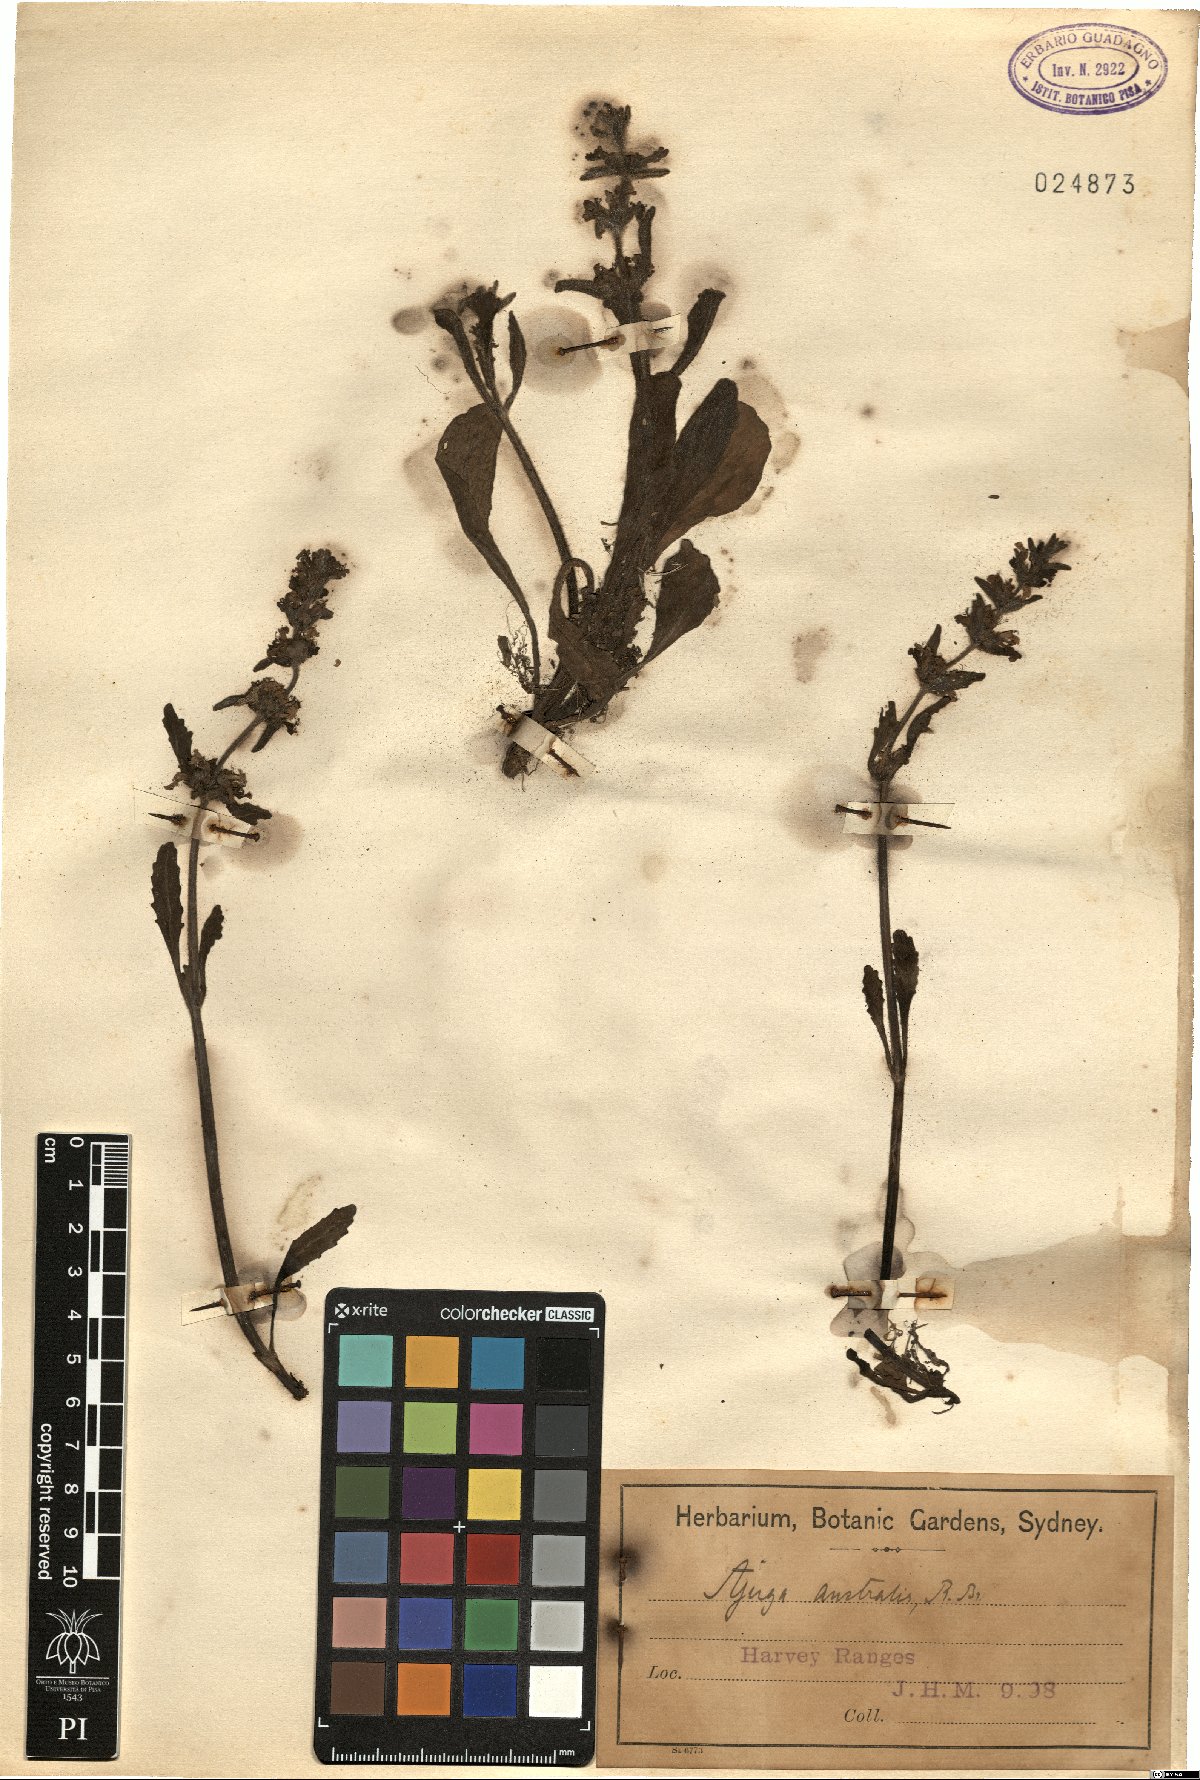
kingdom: Plantae
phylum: Tracheophyta
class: Magnoliopsida
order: Lamiales
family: Lamiaceae
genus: Ajuga
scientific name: Ajuga australis
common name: Australian bugle
